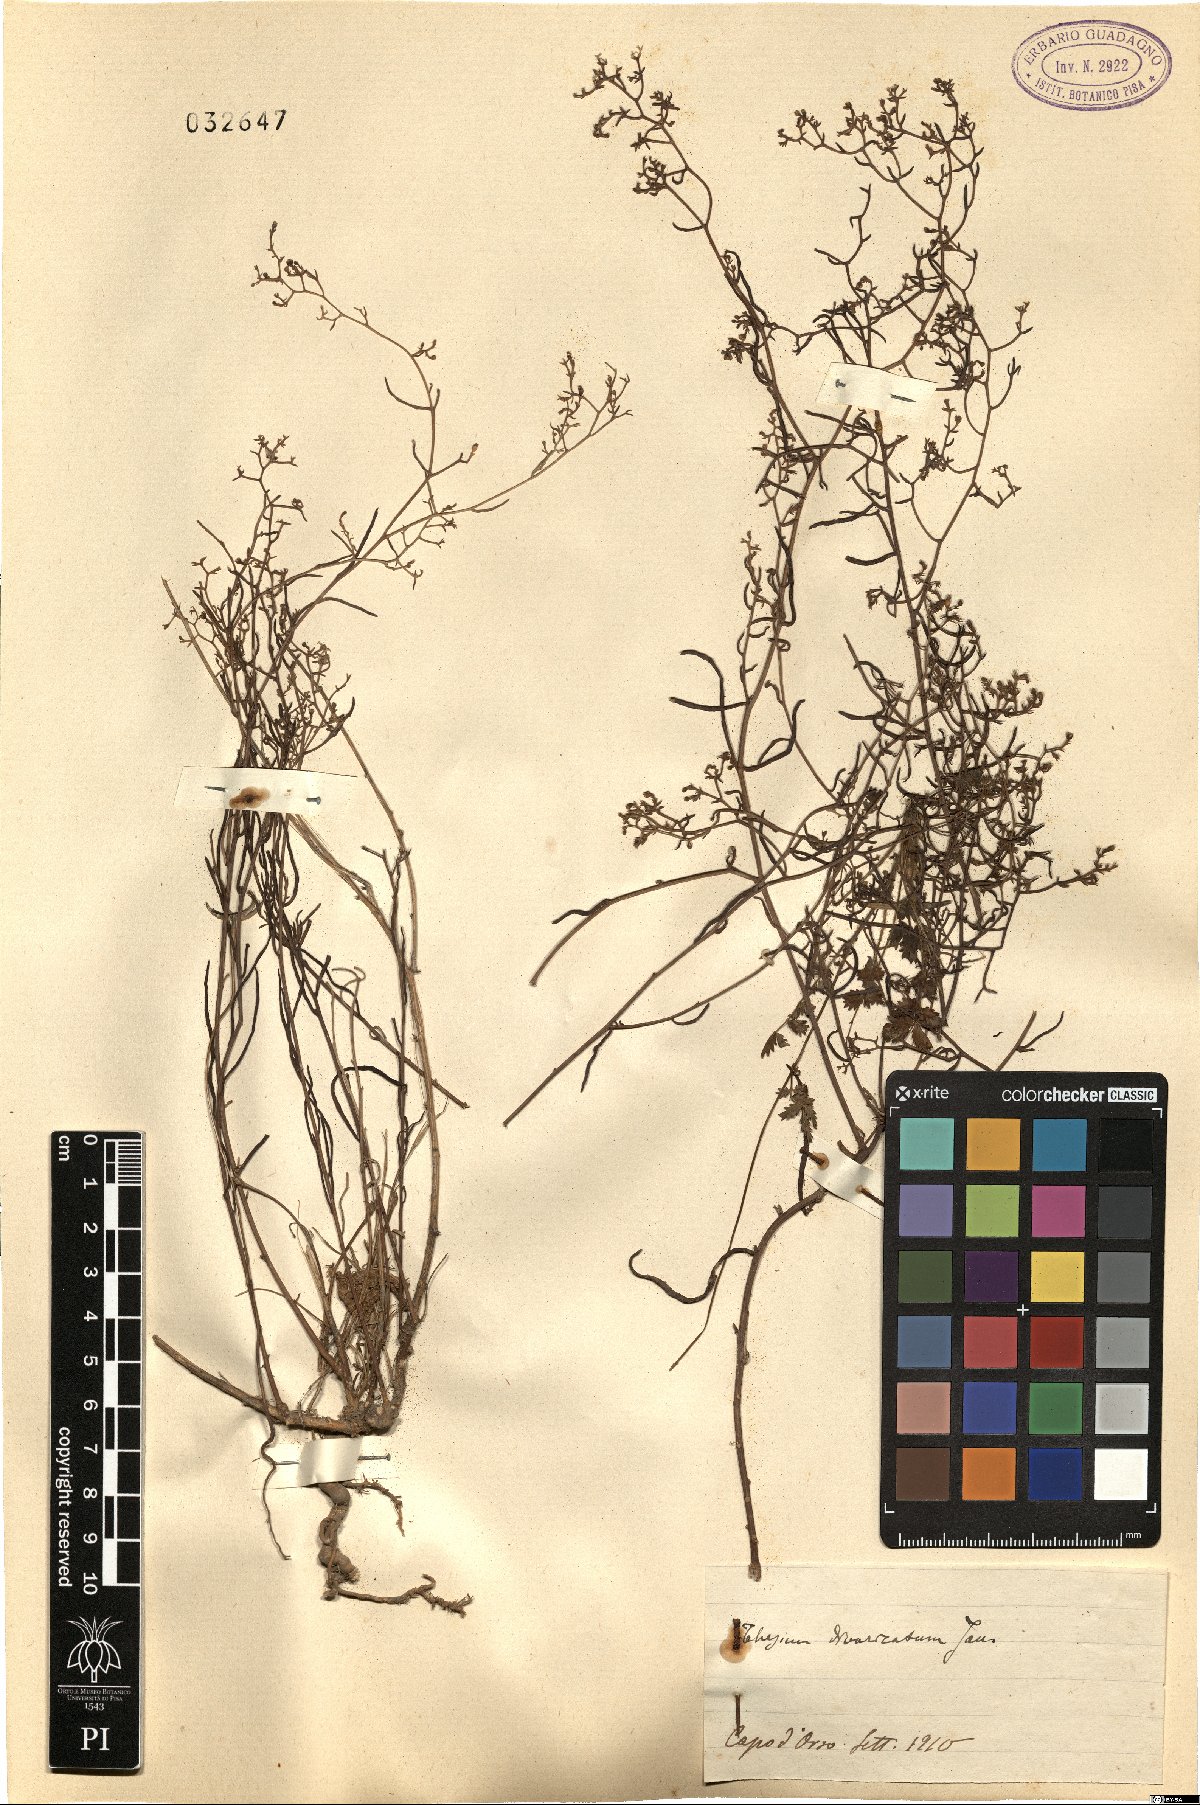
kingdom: Plantae
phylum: Tracheophyta
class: Magnoliopsida
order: Santalales
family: Thesiaceae
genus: Thesium
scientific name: Thesium divaricatum
